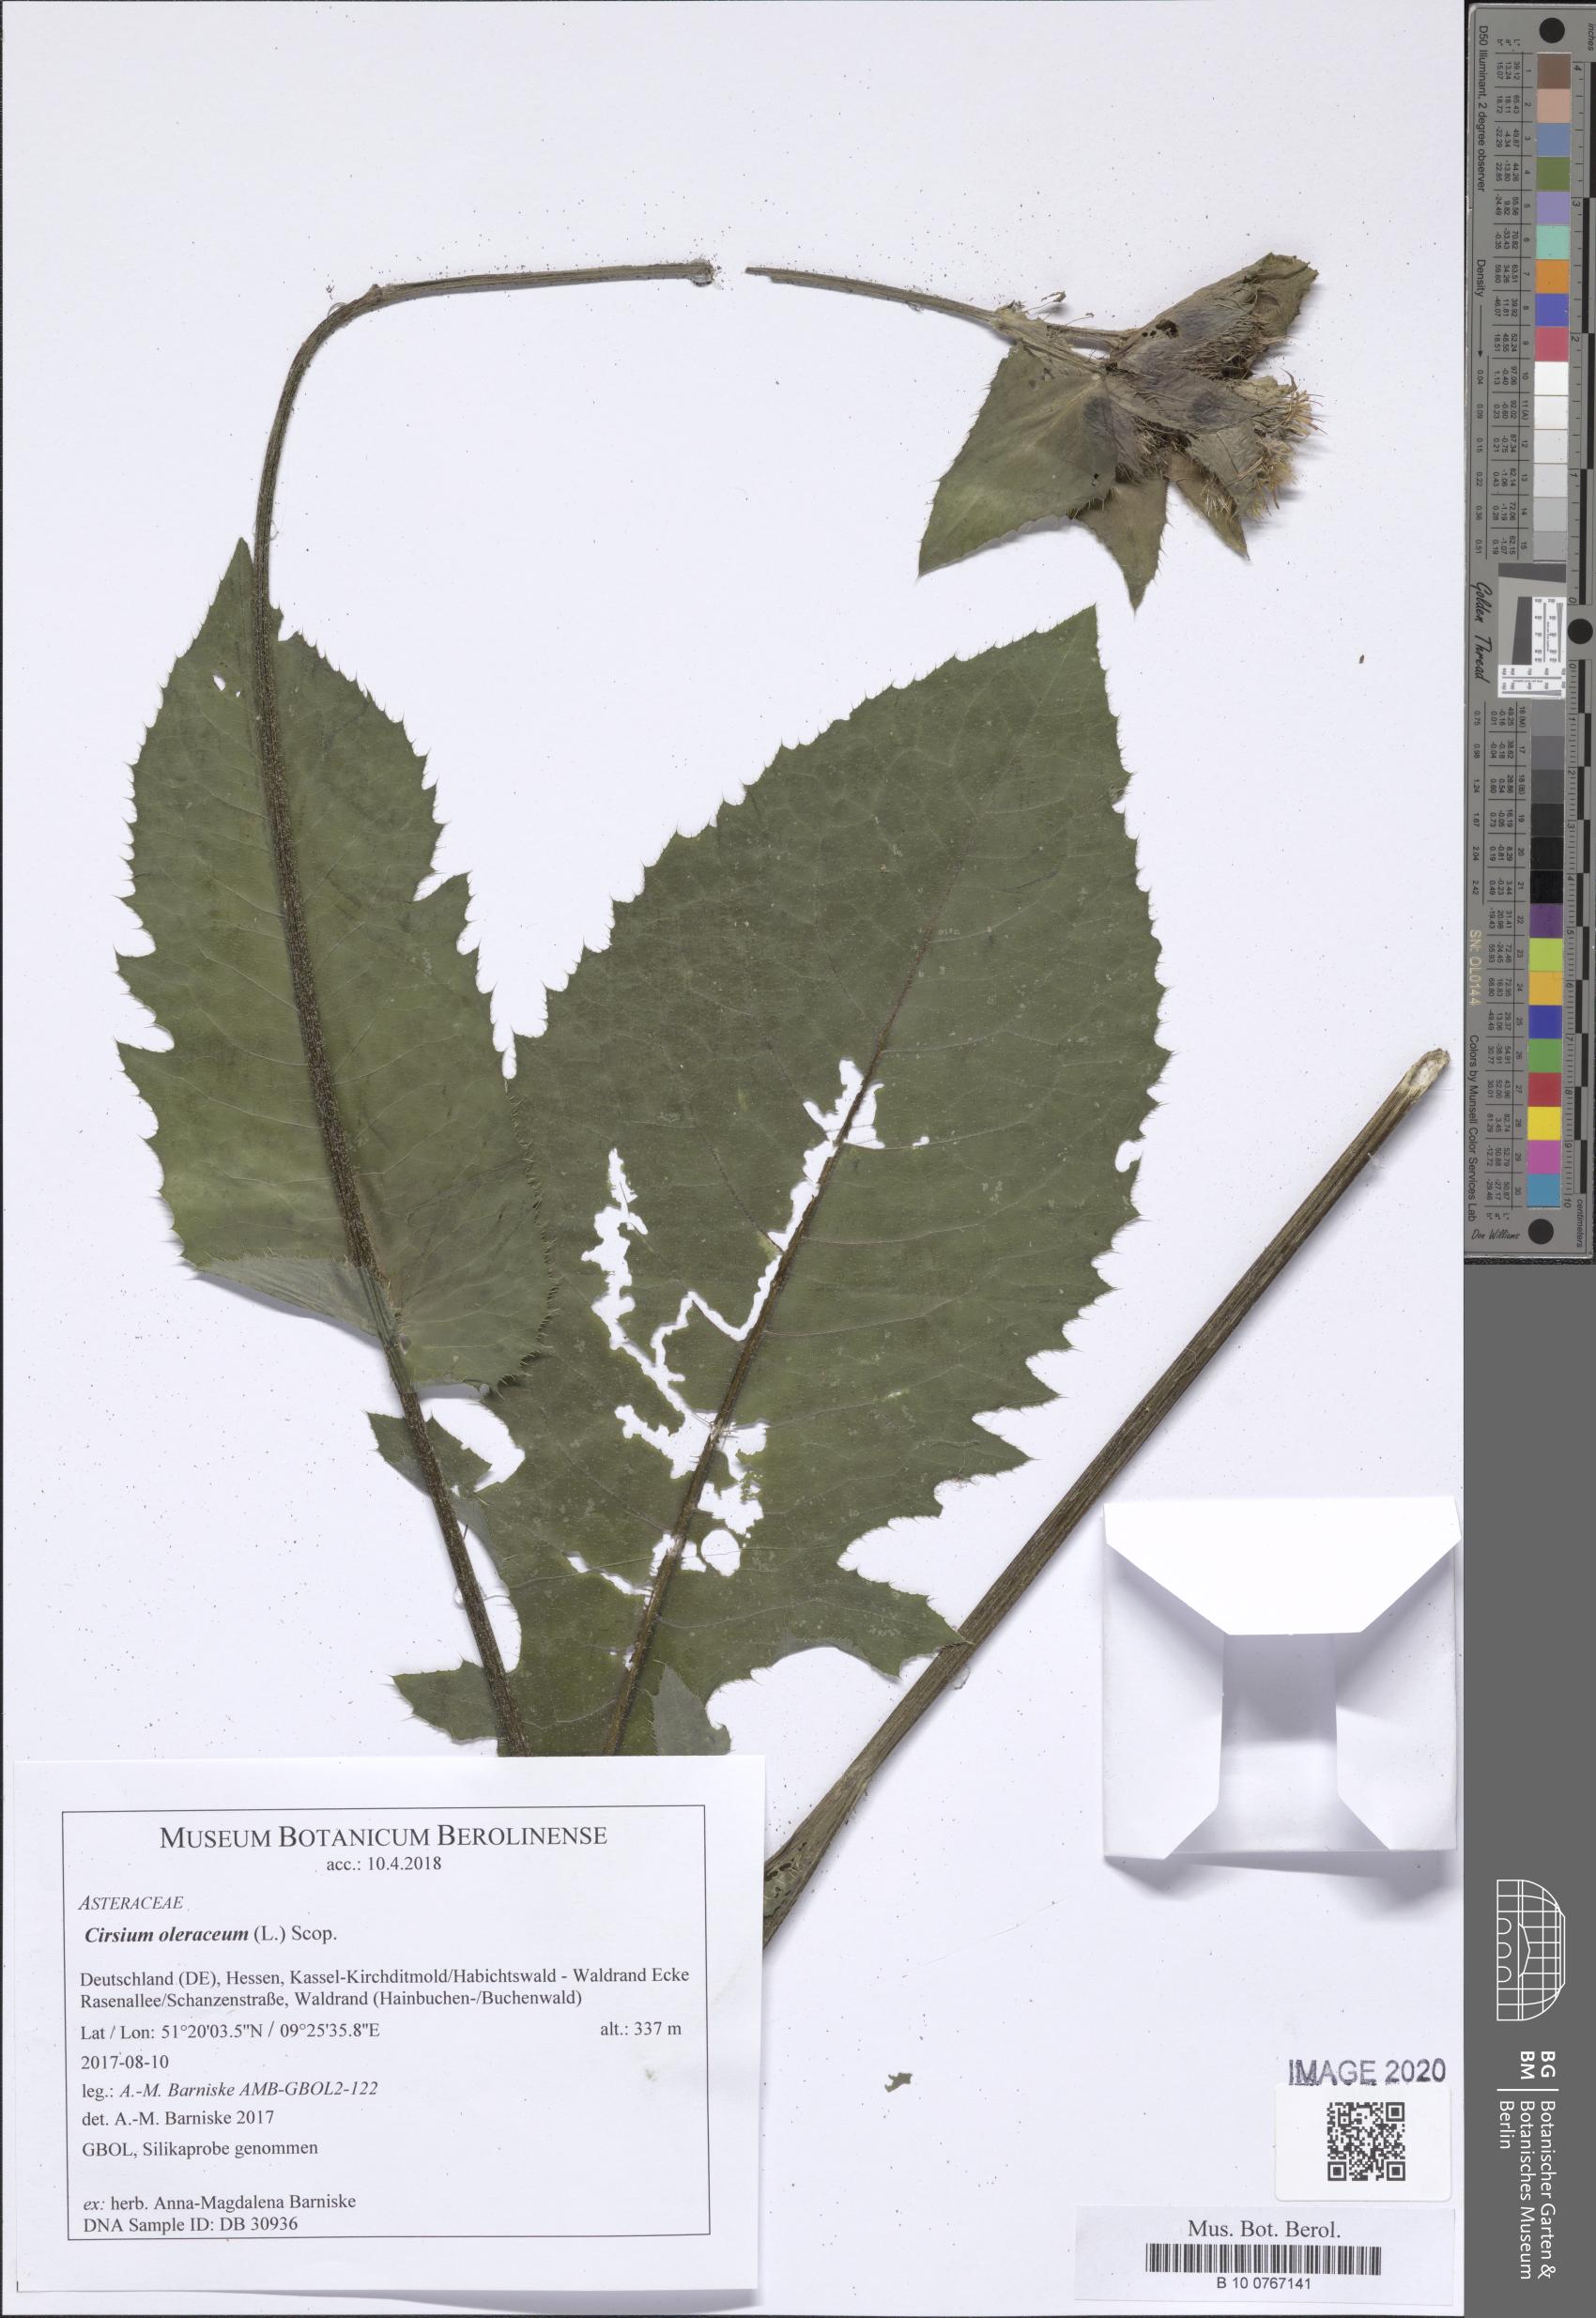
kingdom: Plantae
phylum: Tracheophyta
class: Magnoliopsida
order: Asterales
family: Asteraceae
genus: Cirsium
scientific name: Cirsium oleraceum
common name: Cabbage thistle
